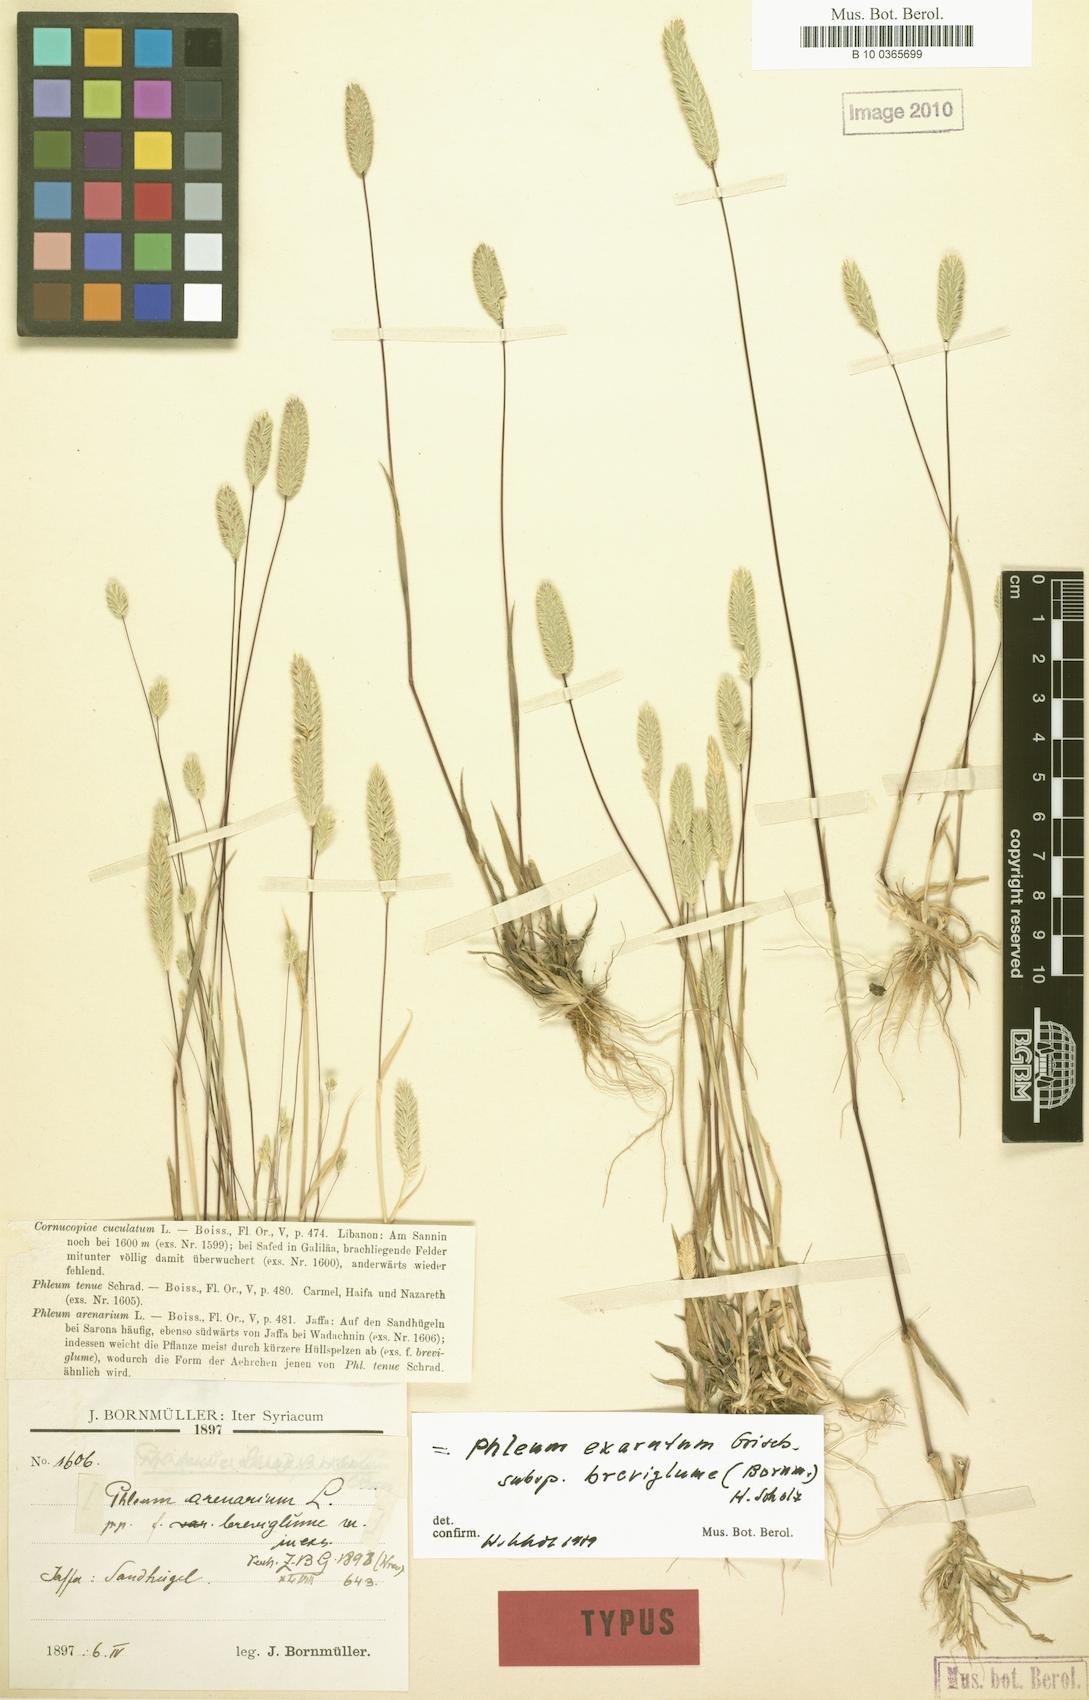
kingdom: Plantae
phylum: Tracheophyta
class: Liliopsida
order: Poales
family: Poaceae
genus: Phleum
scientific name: Phleum exaratum
